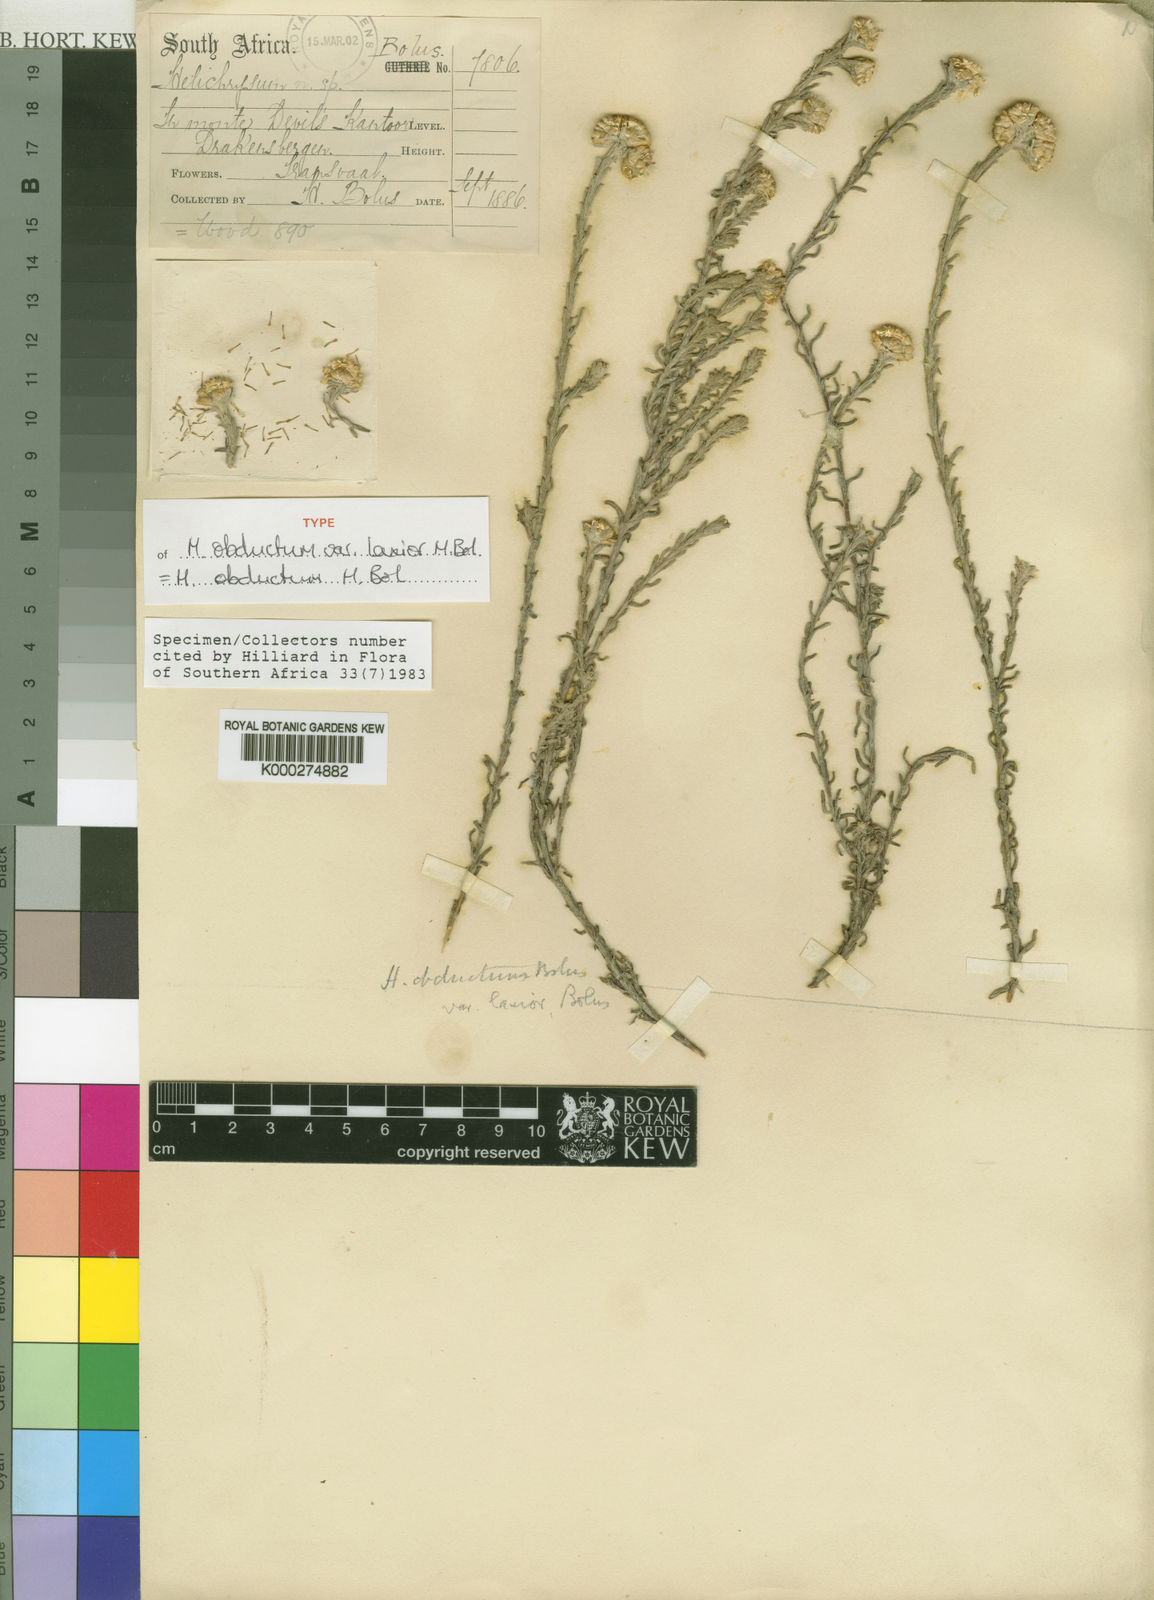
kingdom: Plantae
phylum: Tracheophyta
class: Magnoliopsida
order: Asterales
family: Asteraceae
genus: Helichrysum
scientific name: Helichrysum obductum
